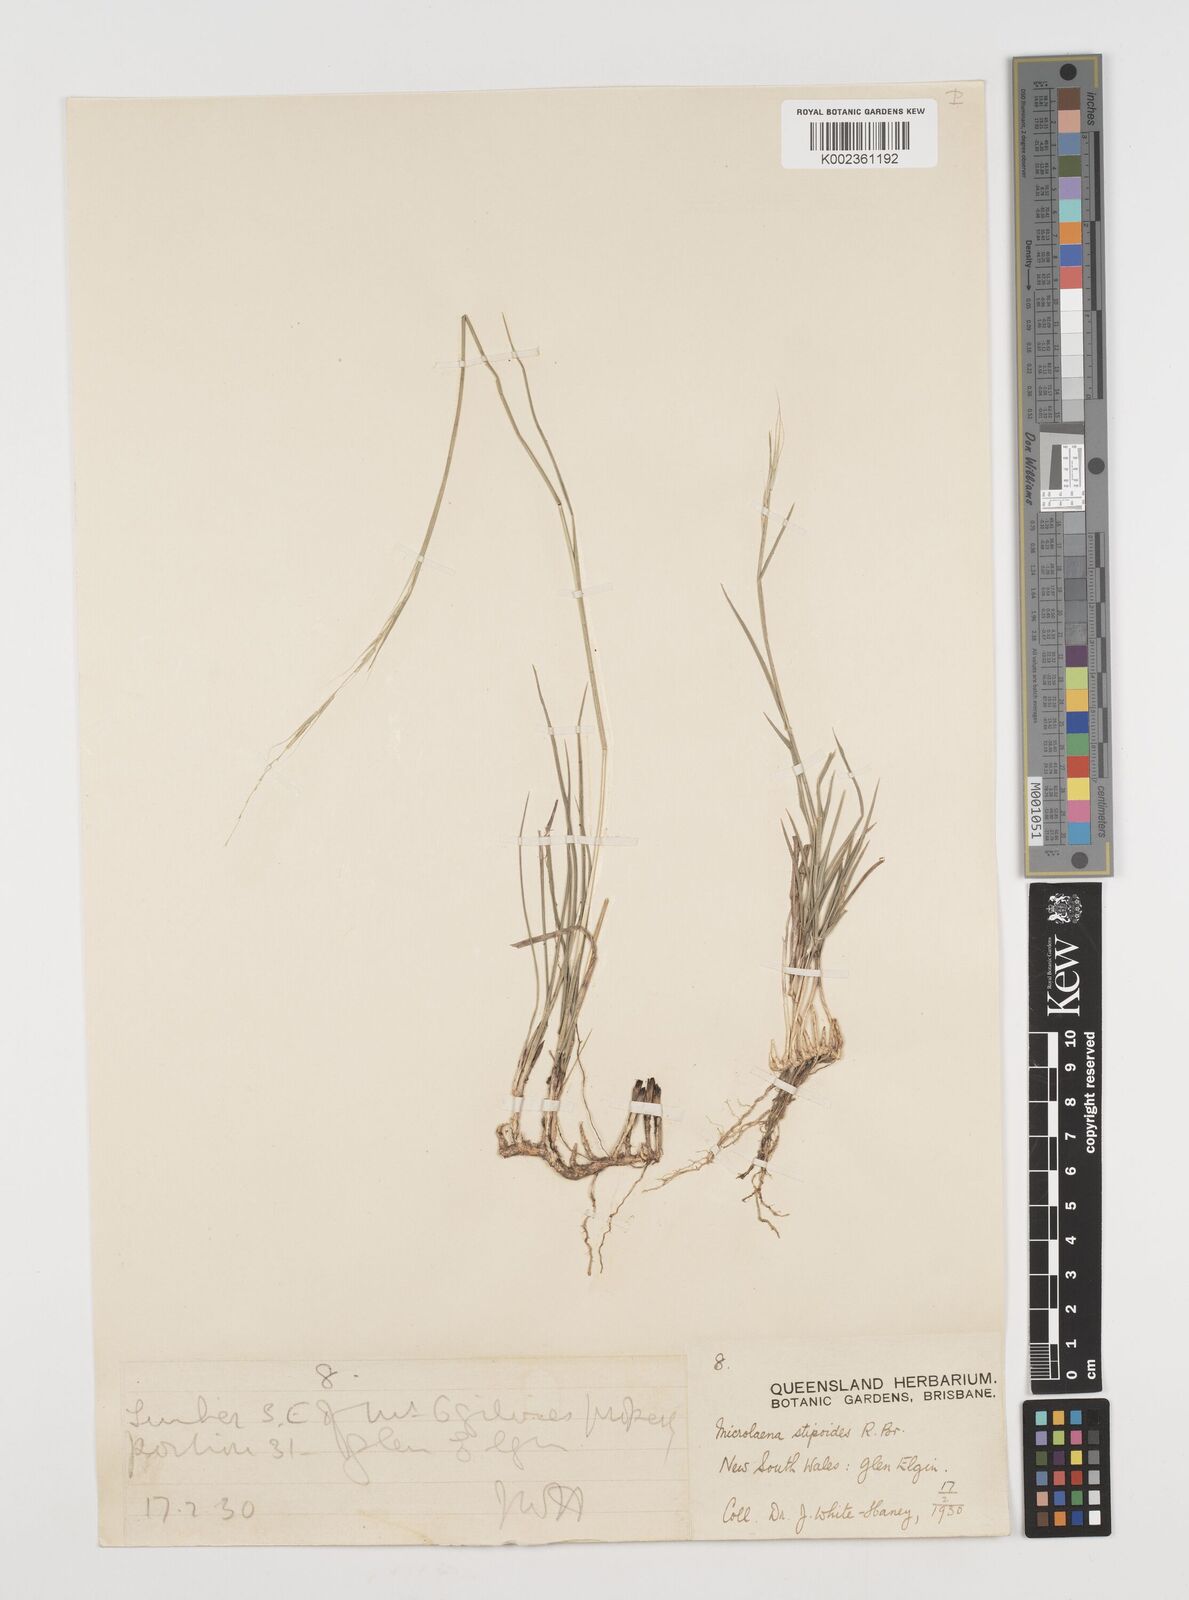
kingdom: Plantae
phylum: Tracheophyta
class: Liliopsida
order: Poales
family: Poaceae
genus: Microlaena
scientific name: Microlaena stipoides
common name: Meadow ricegrass
